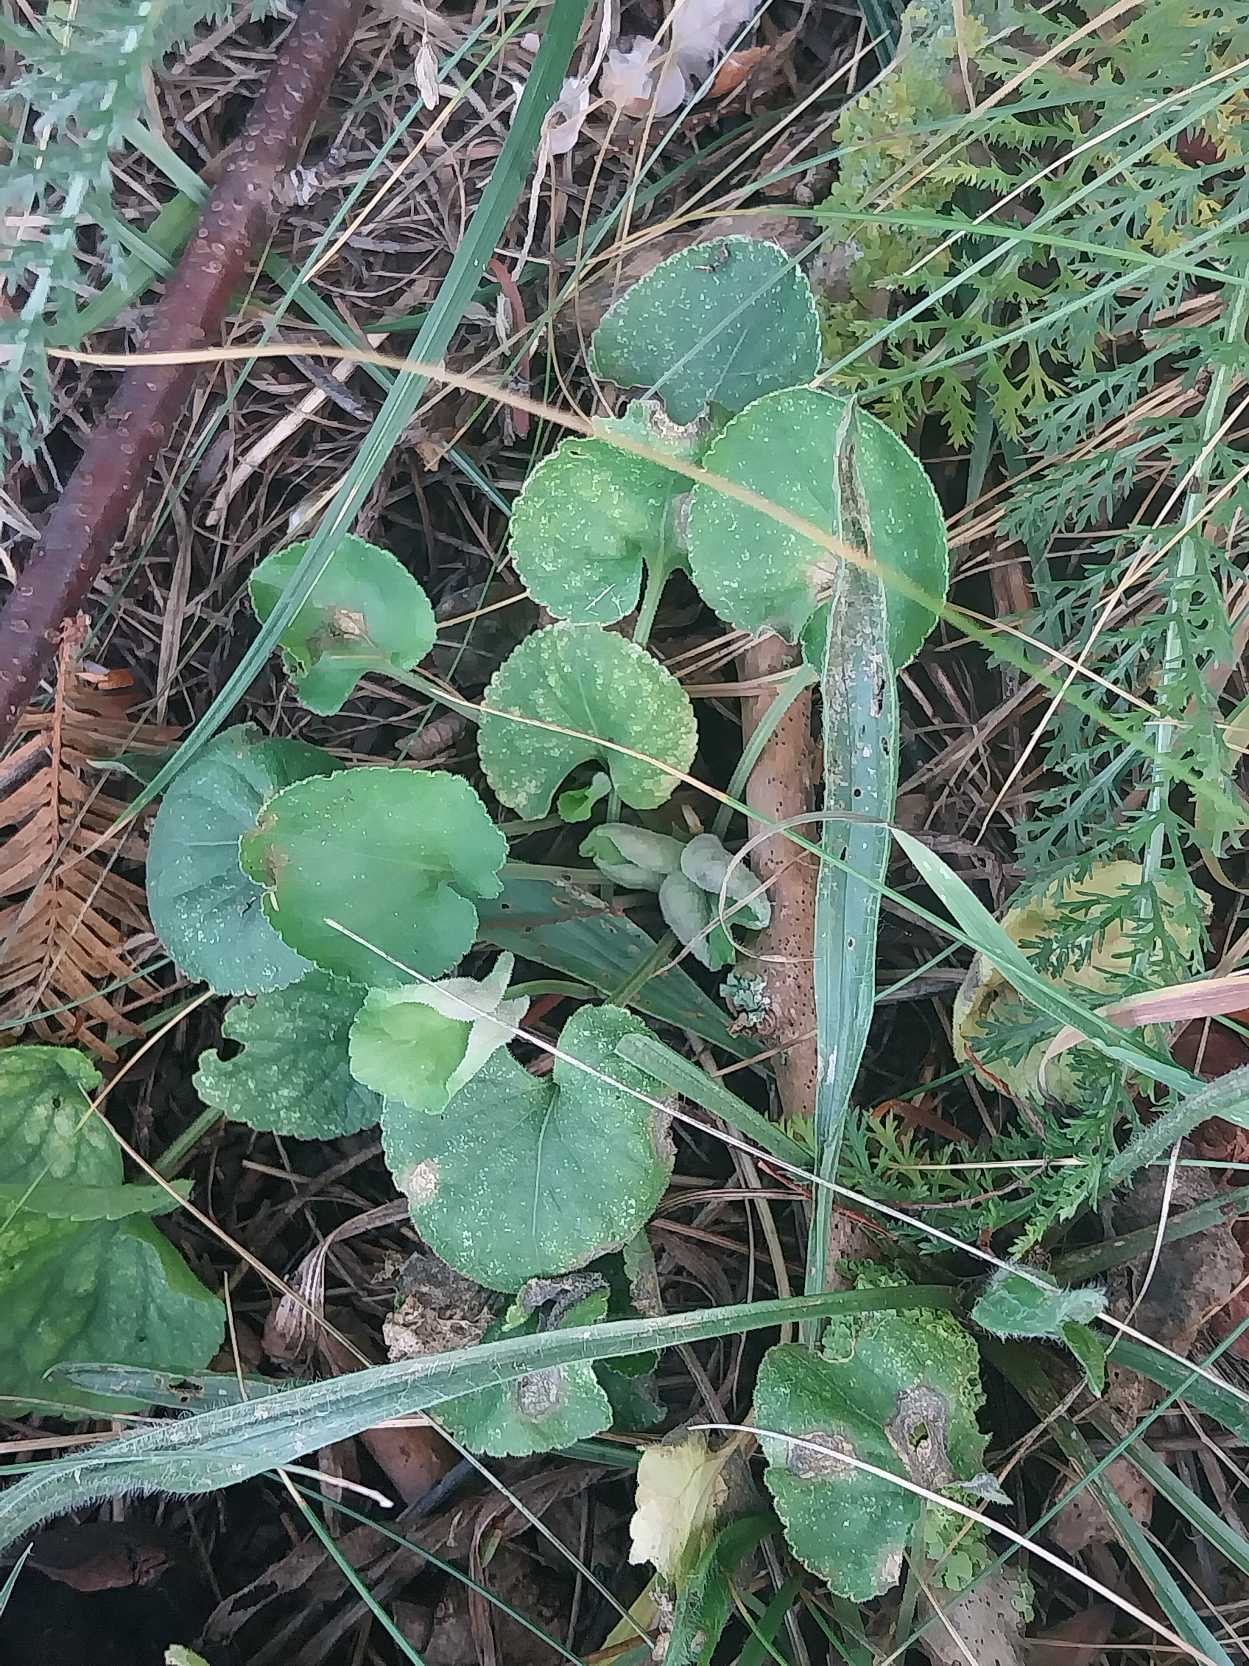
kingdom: Plantae
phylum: Tracheophyta
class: Magnoliopsida
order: Malpighiales
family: Violaceae
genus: Viola
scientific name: Viola odorata
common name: Marts-viol
